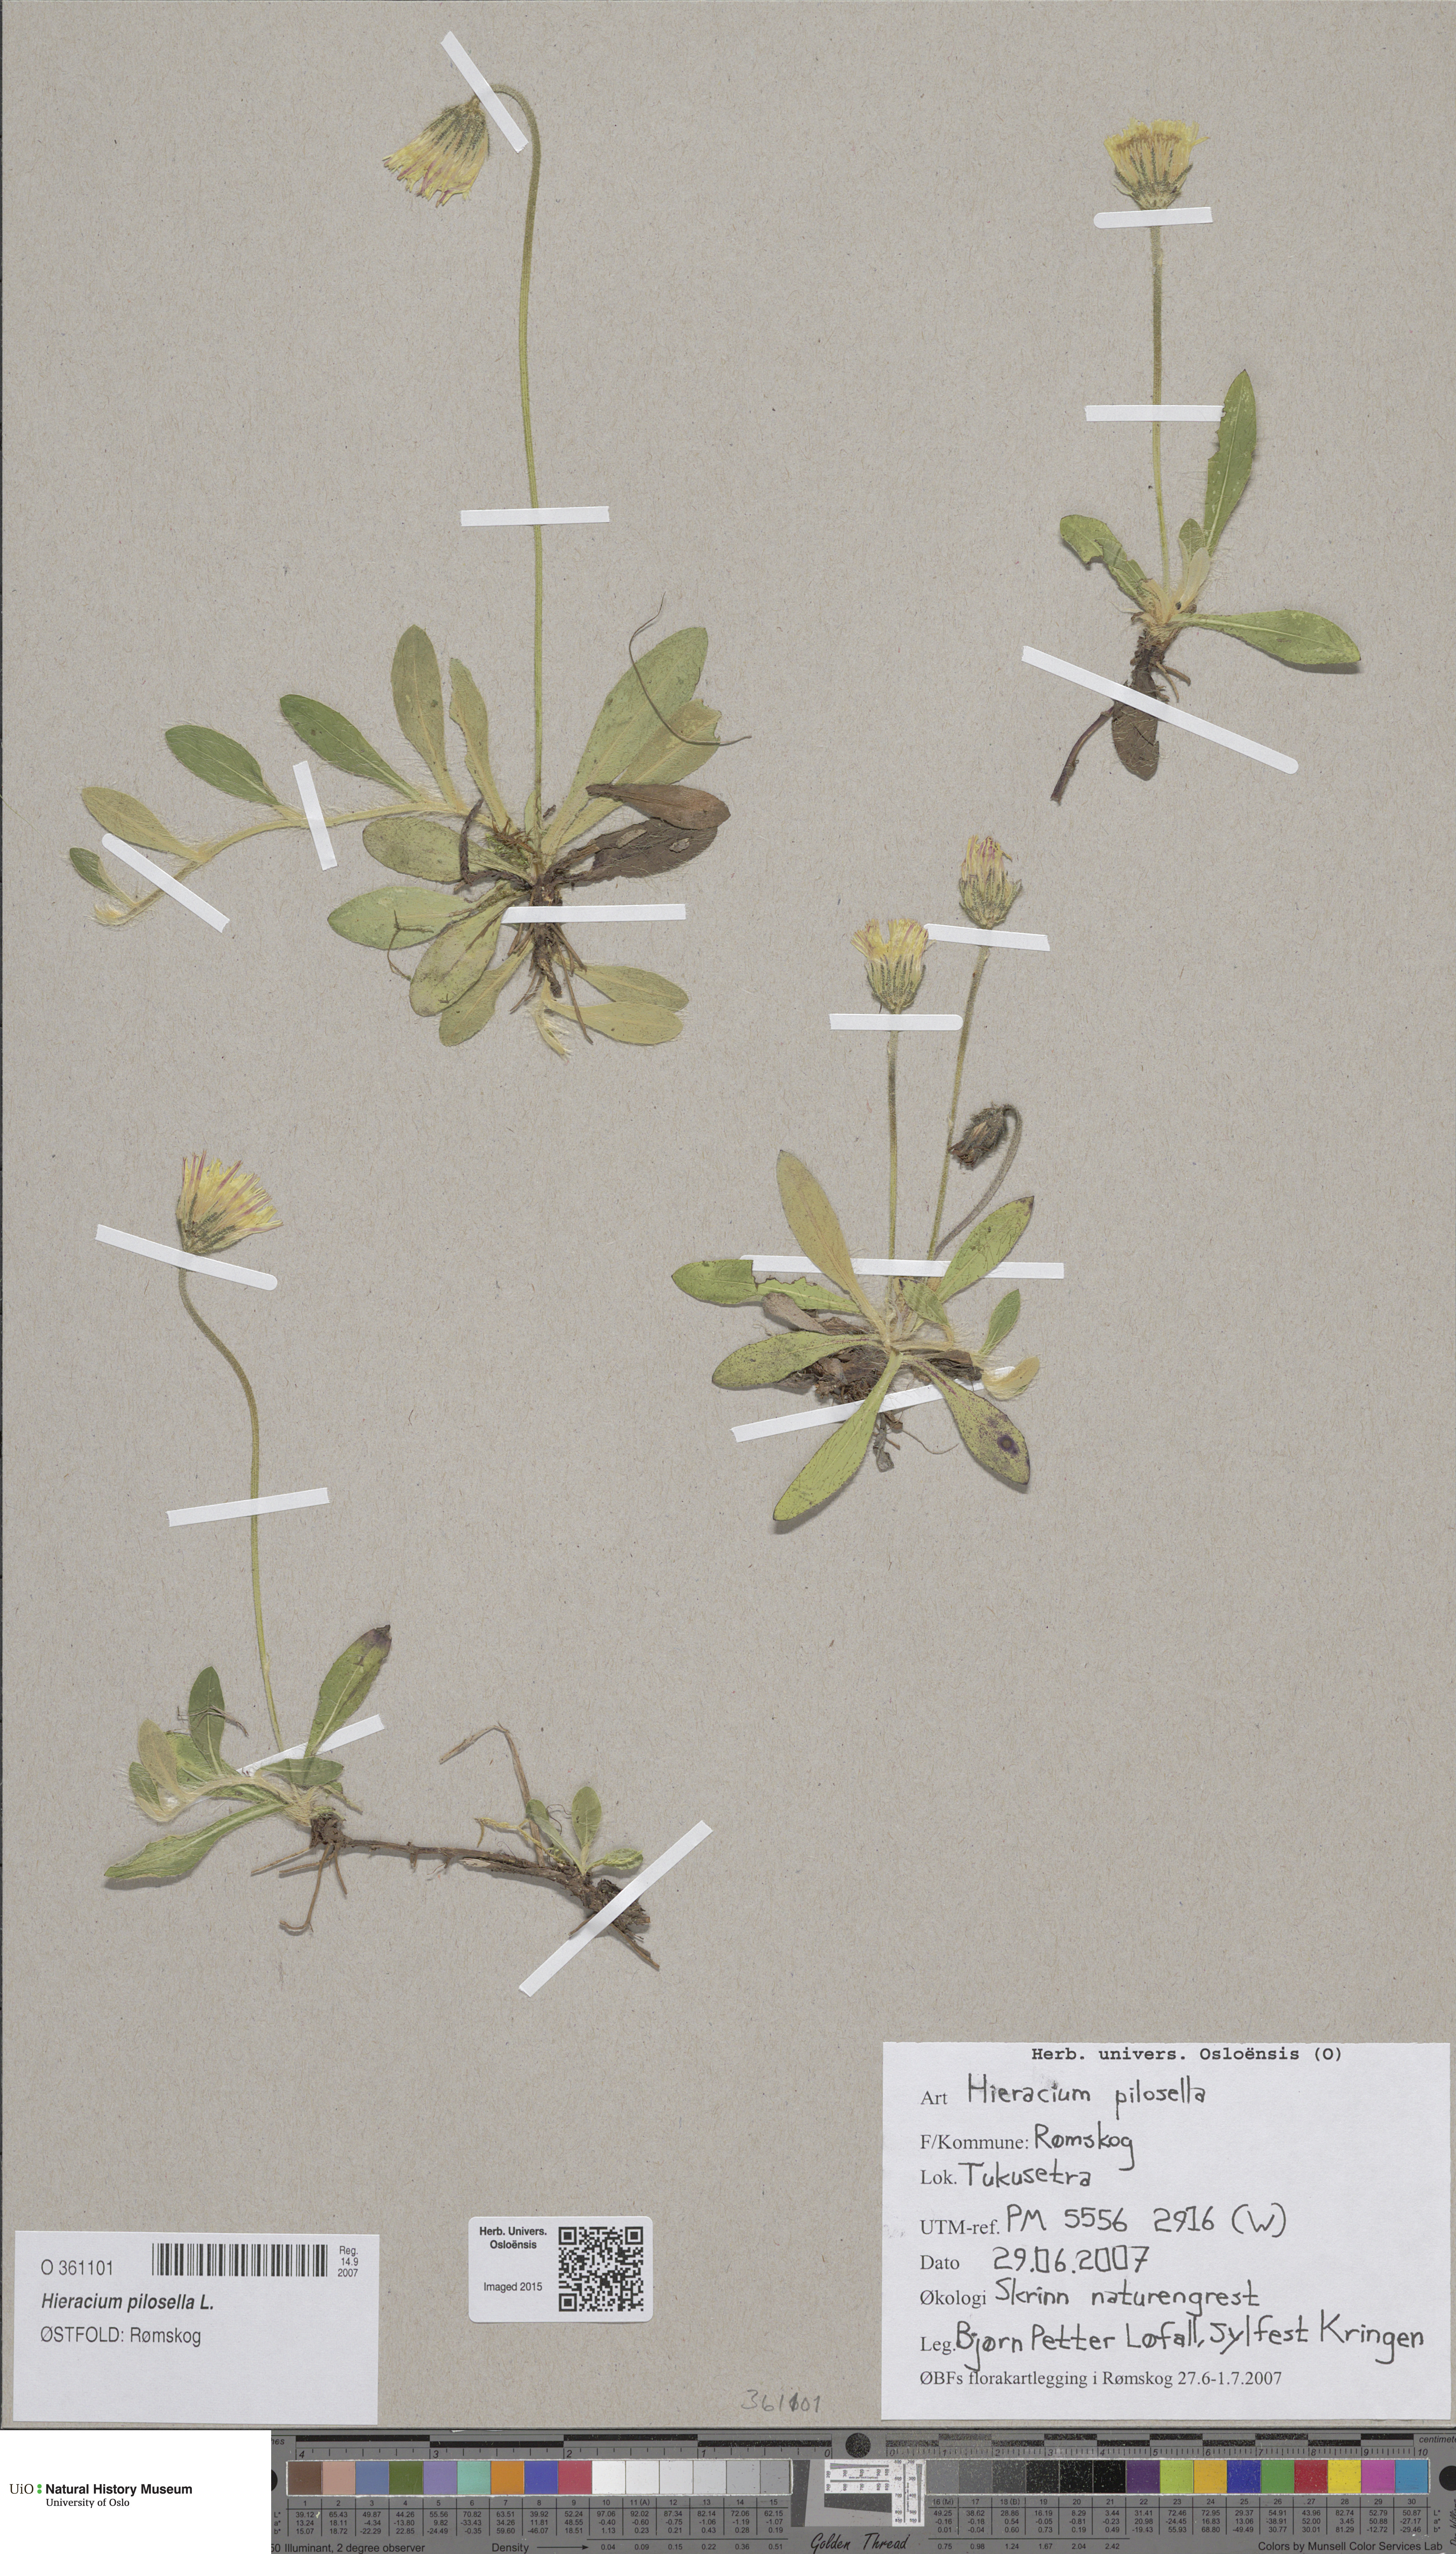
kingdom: Plantae
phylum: Tracheophyta
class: Magnoliopsida
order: Asterales
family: Asteraceae
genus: Pilosella
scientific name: Pilosella officinarum
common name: Mouse-ear hawkweed
